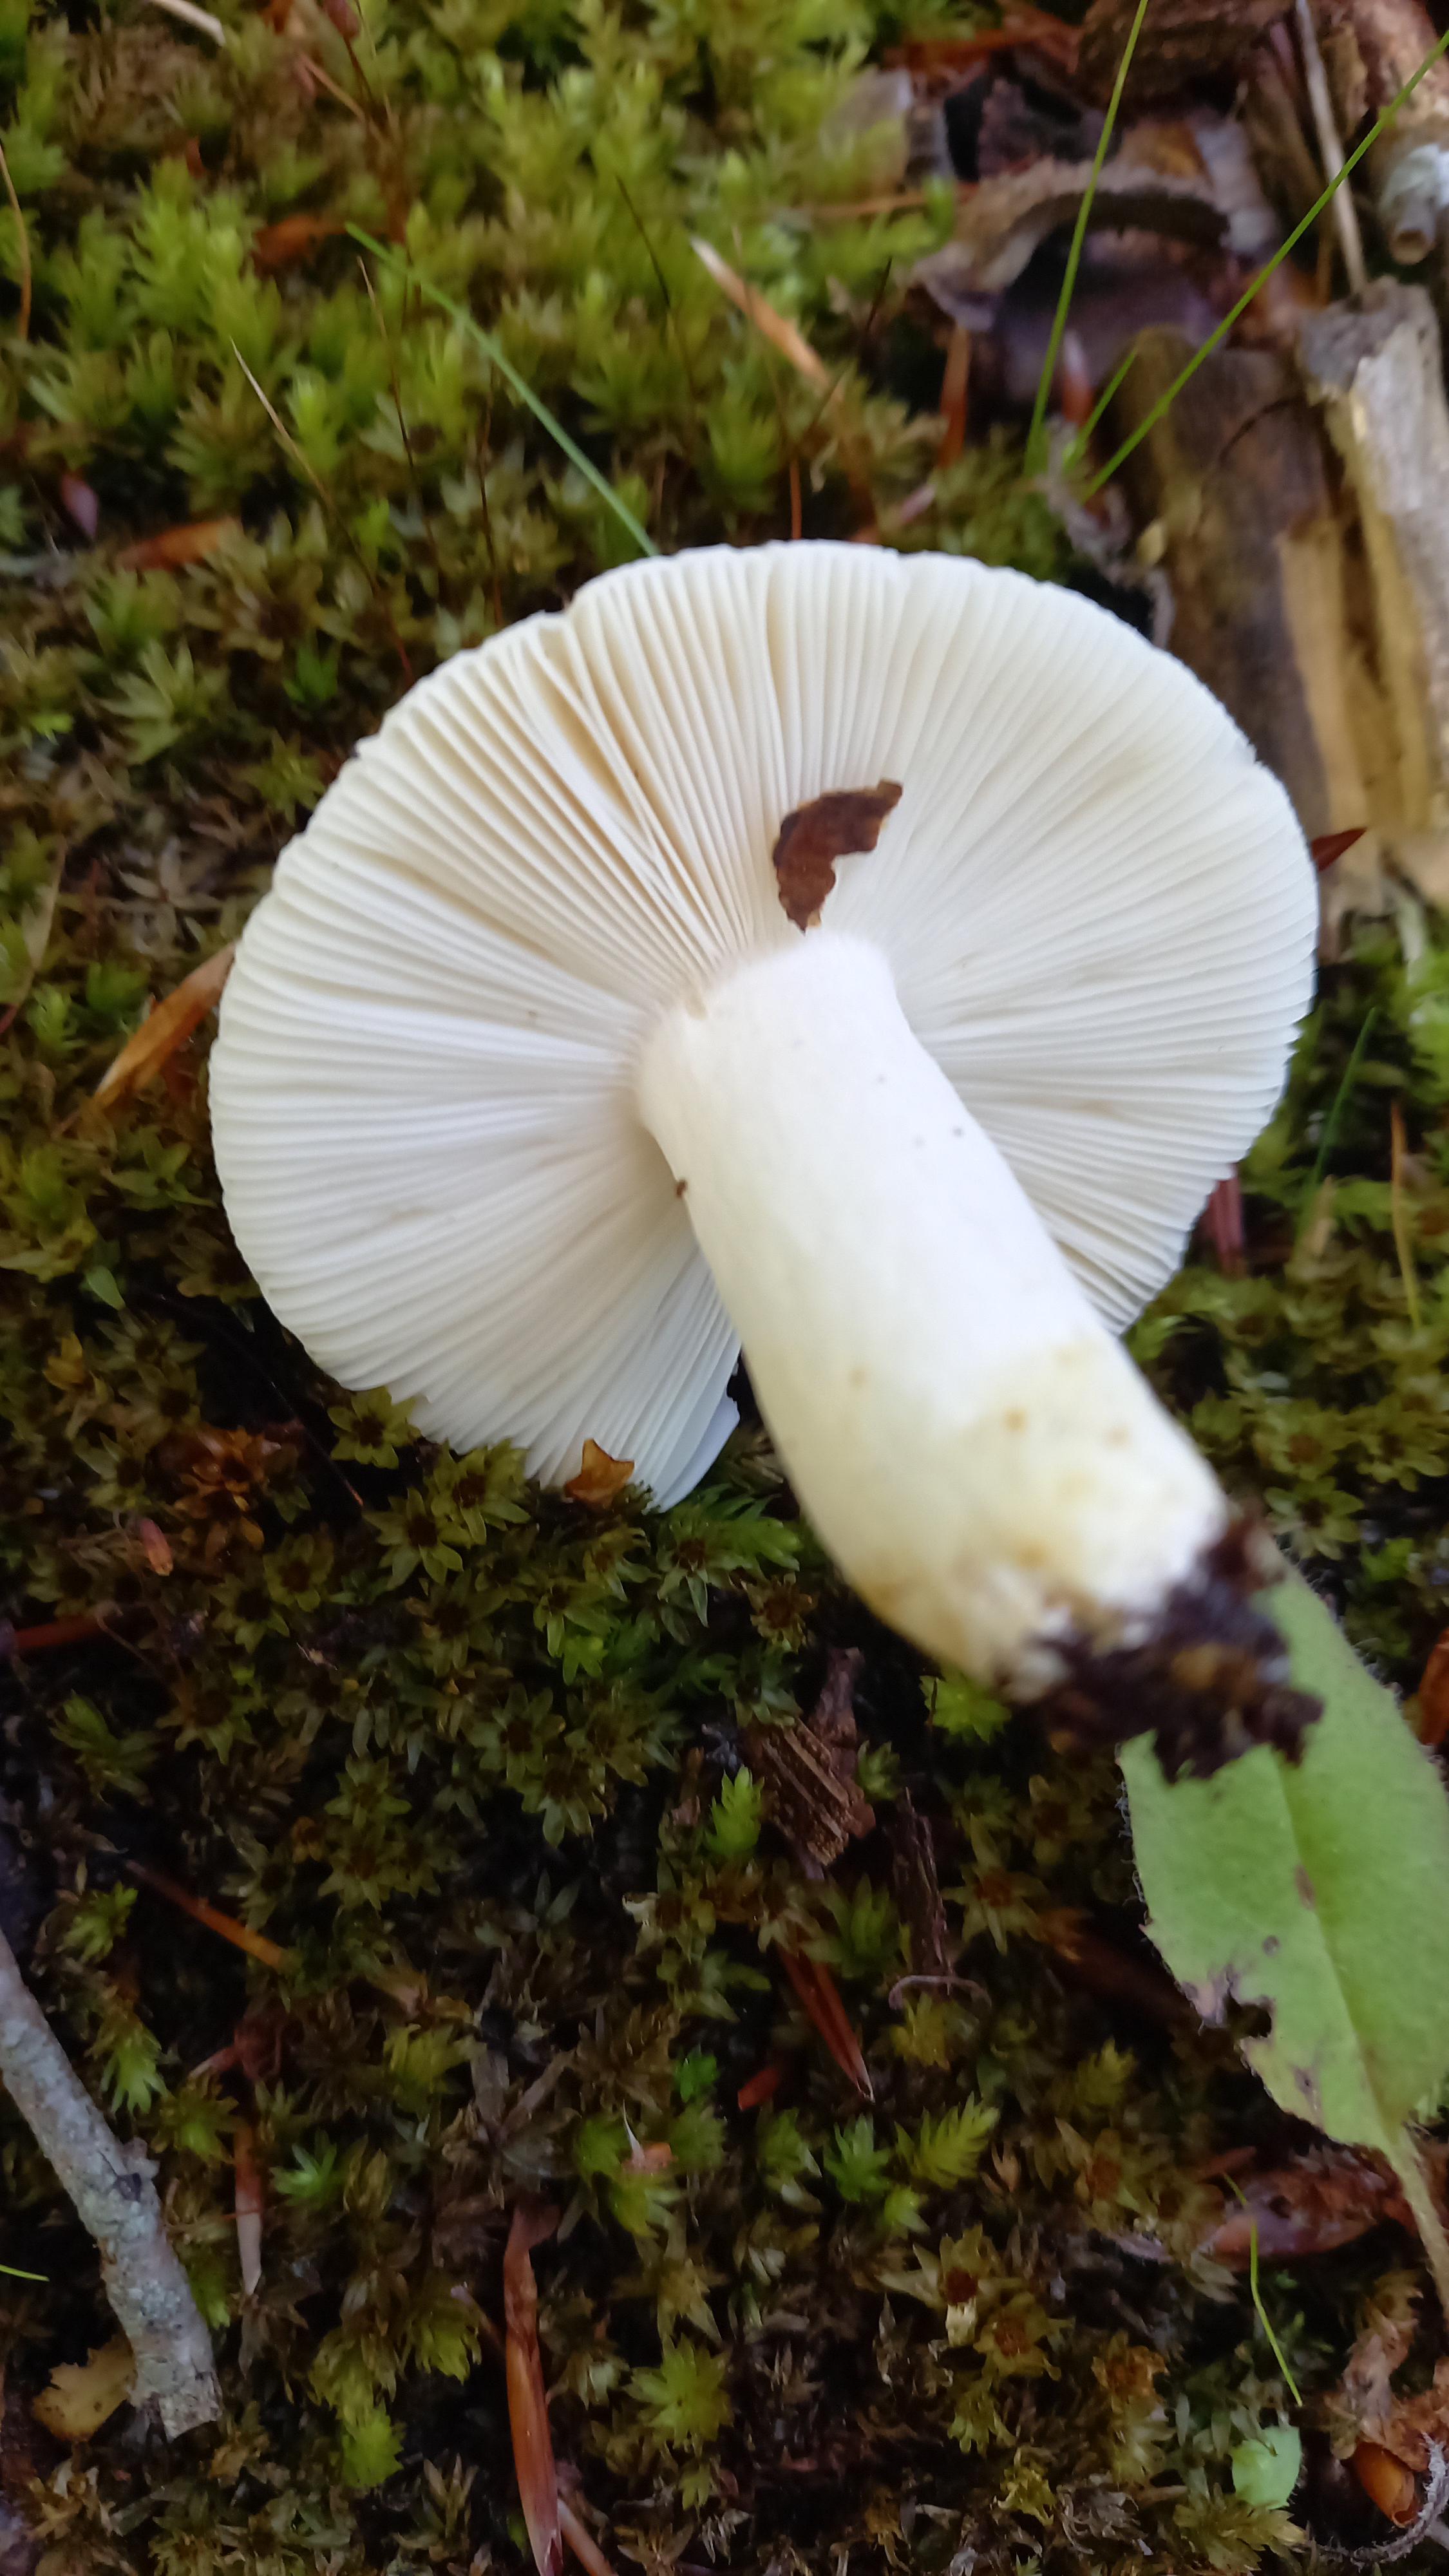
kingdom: Fungi
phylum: Basidiomycota
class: Agaricomycetes
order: Russulales
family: Russulaceae
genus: Russula
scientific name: Russula
